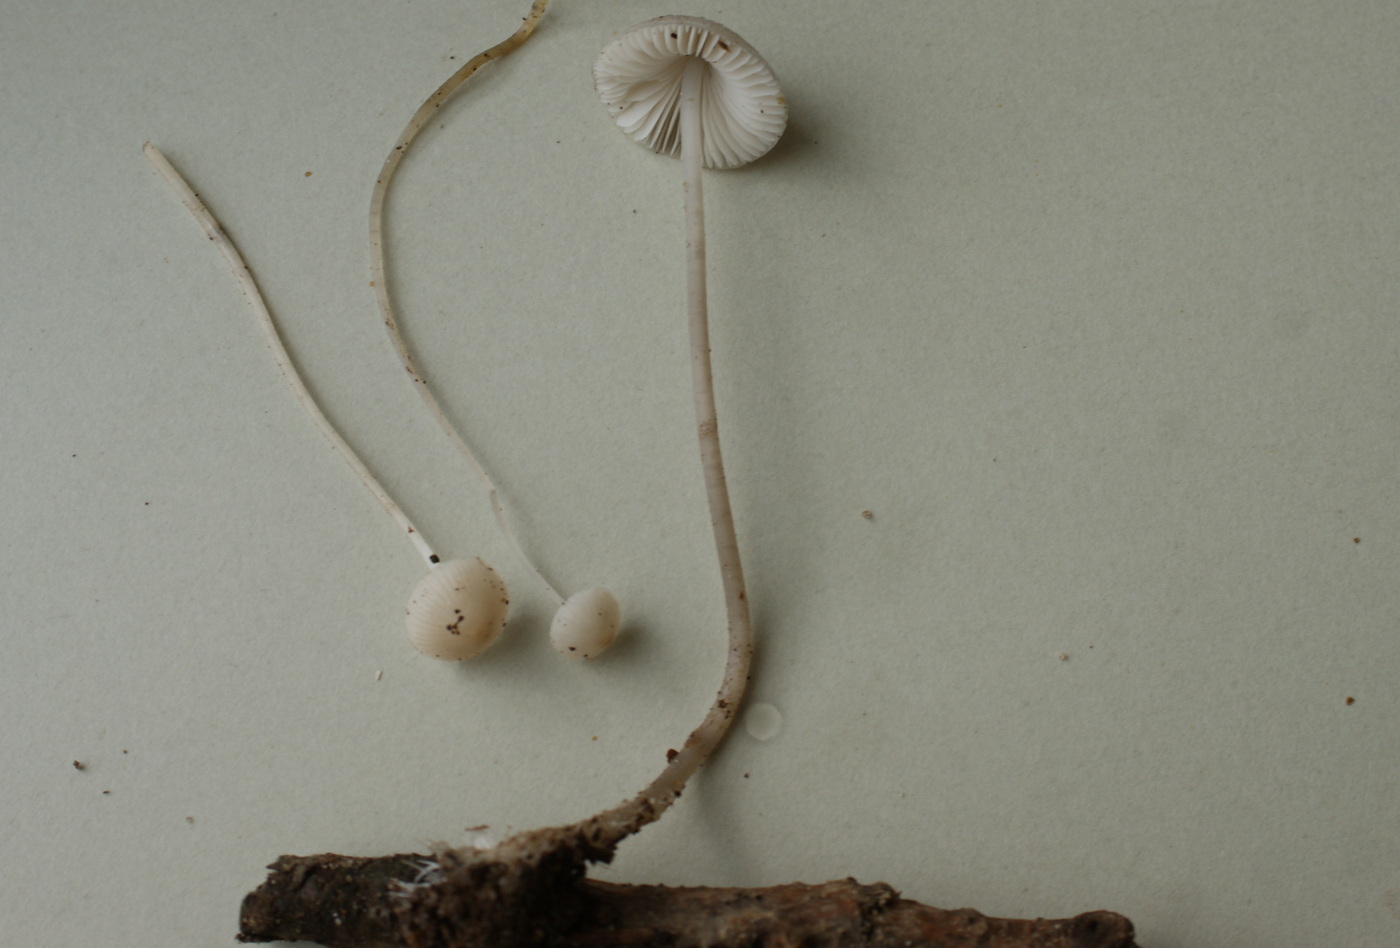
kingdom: Fungi
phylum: Basidiomycota
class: Agaricomycetes
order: Agaricales
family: Mycenaceae
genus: Mycena
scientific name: Mycena vitilis
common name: blankstokket huesvamp
